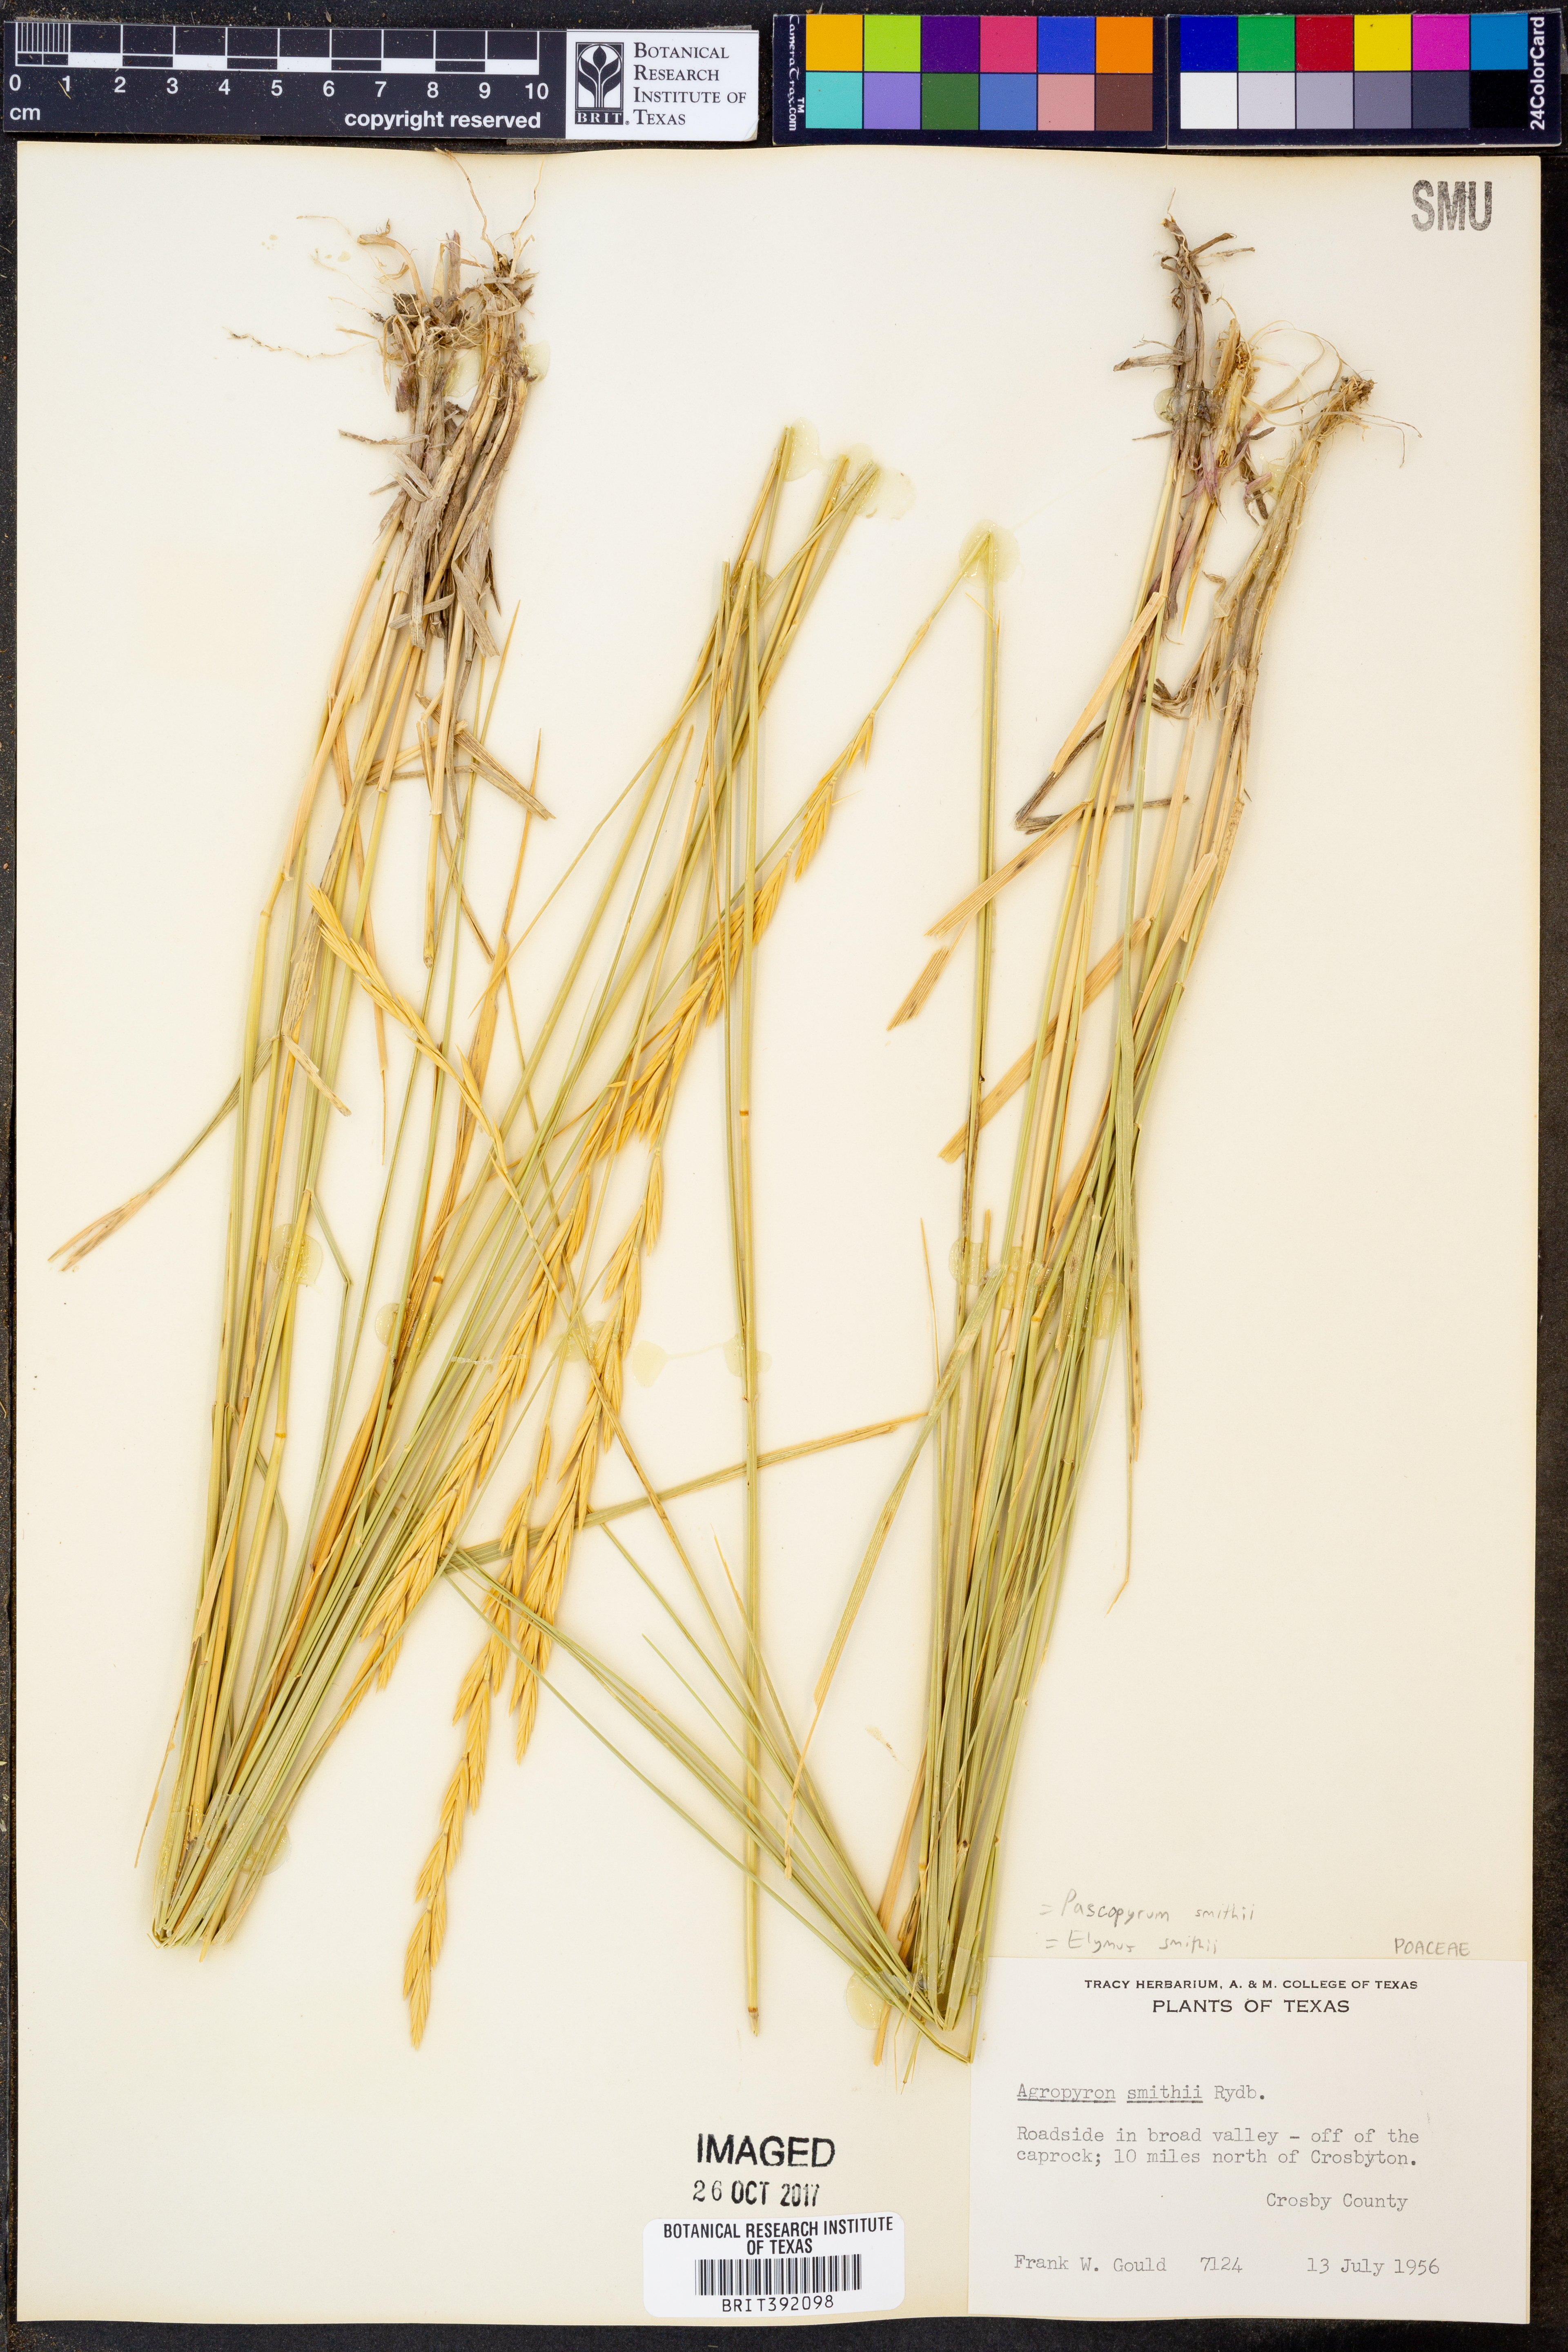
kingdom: Plantae
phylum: Tracheophyta
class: Liliopsida
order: Poales
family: Poaceae
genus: Elymus
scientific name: Elymus smithii
